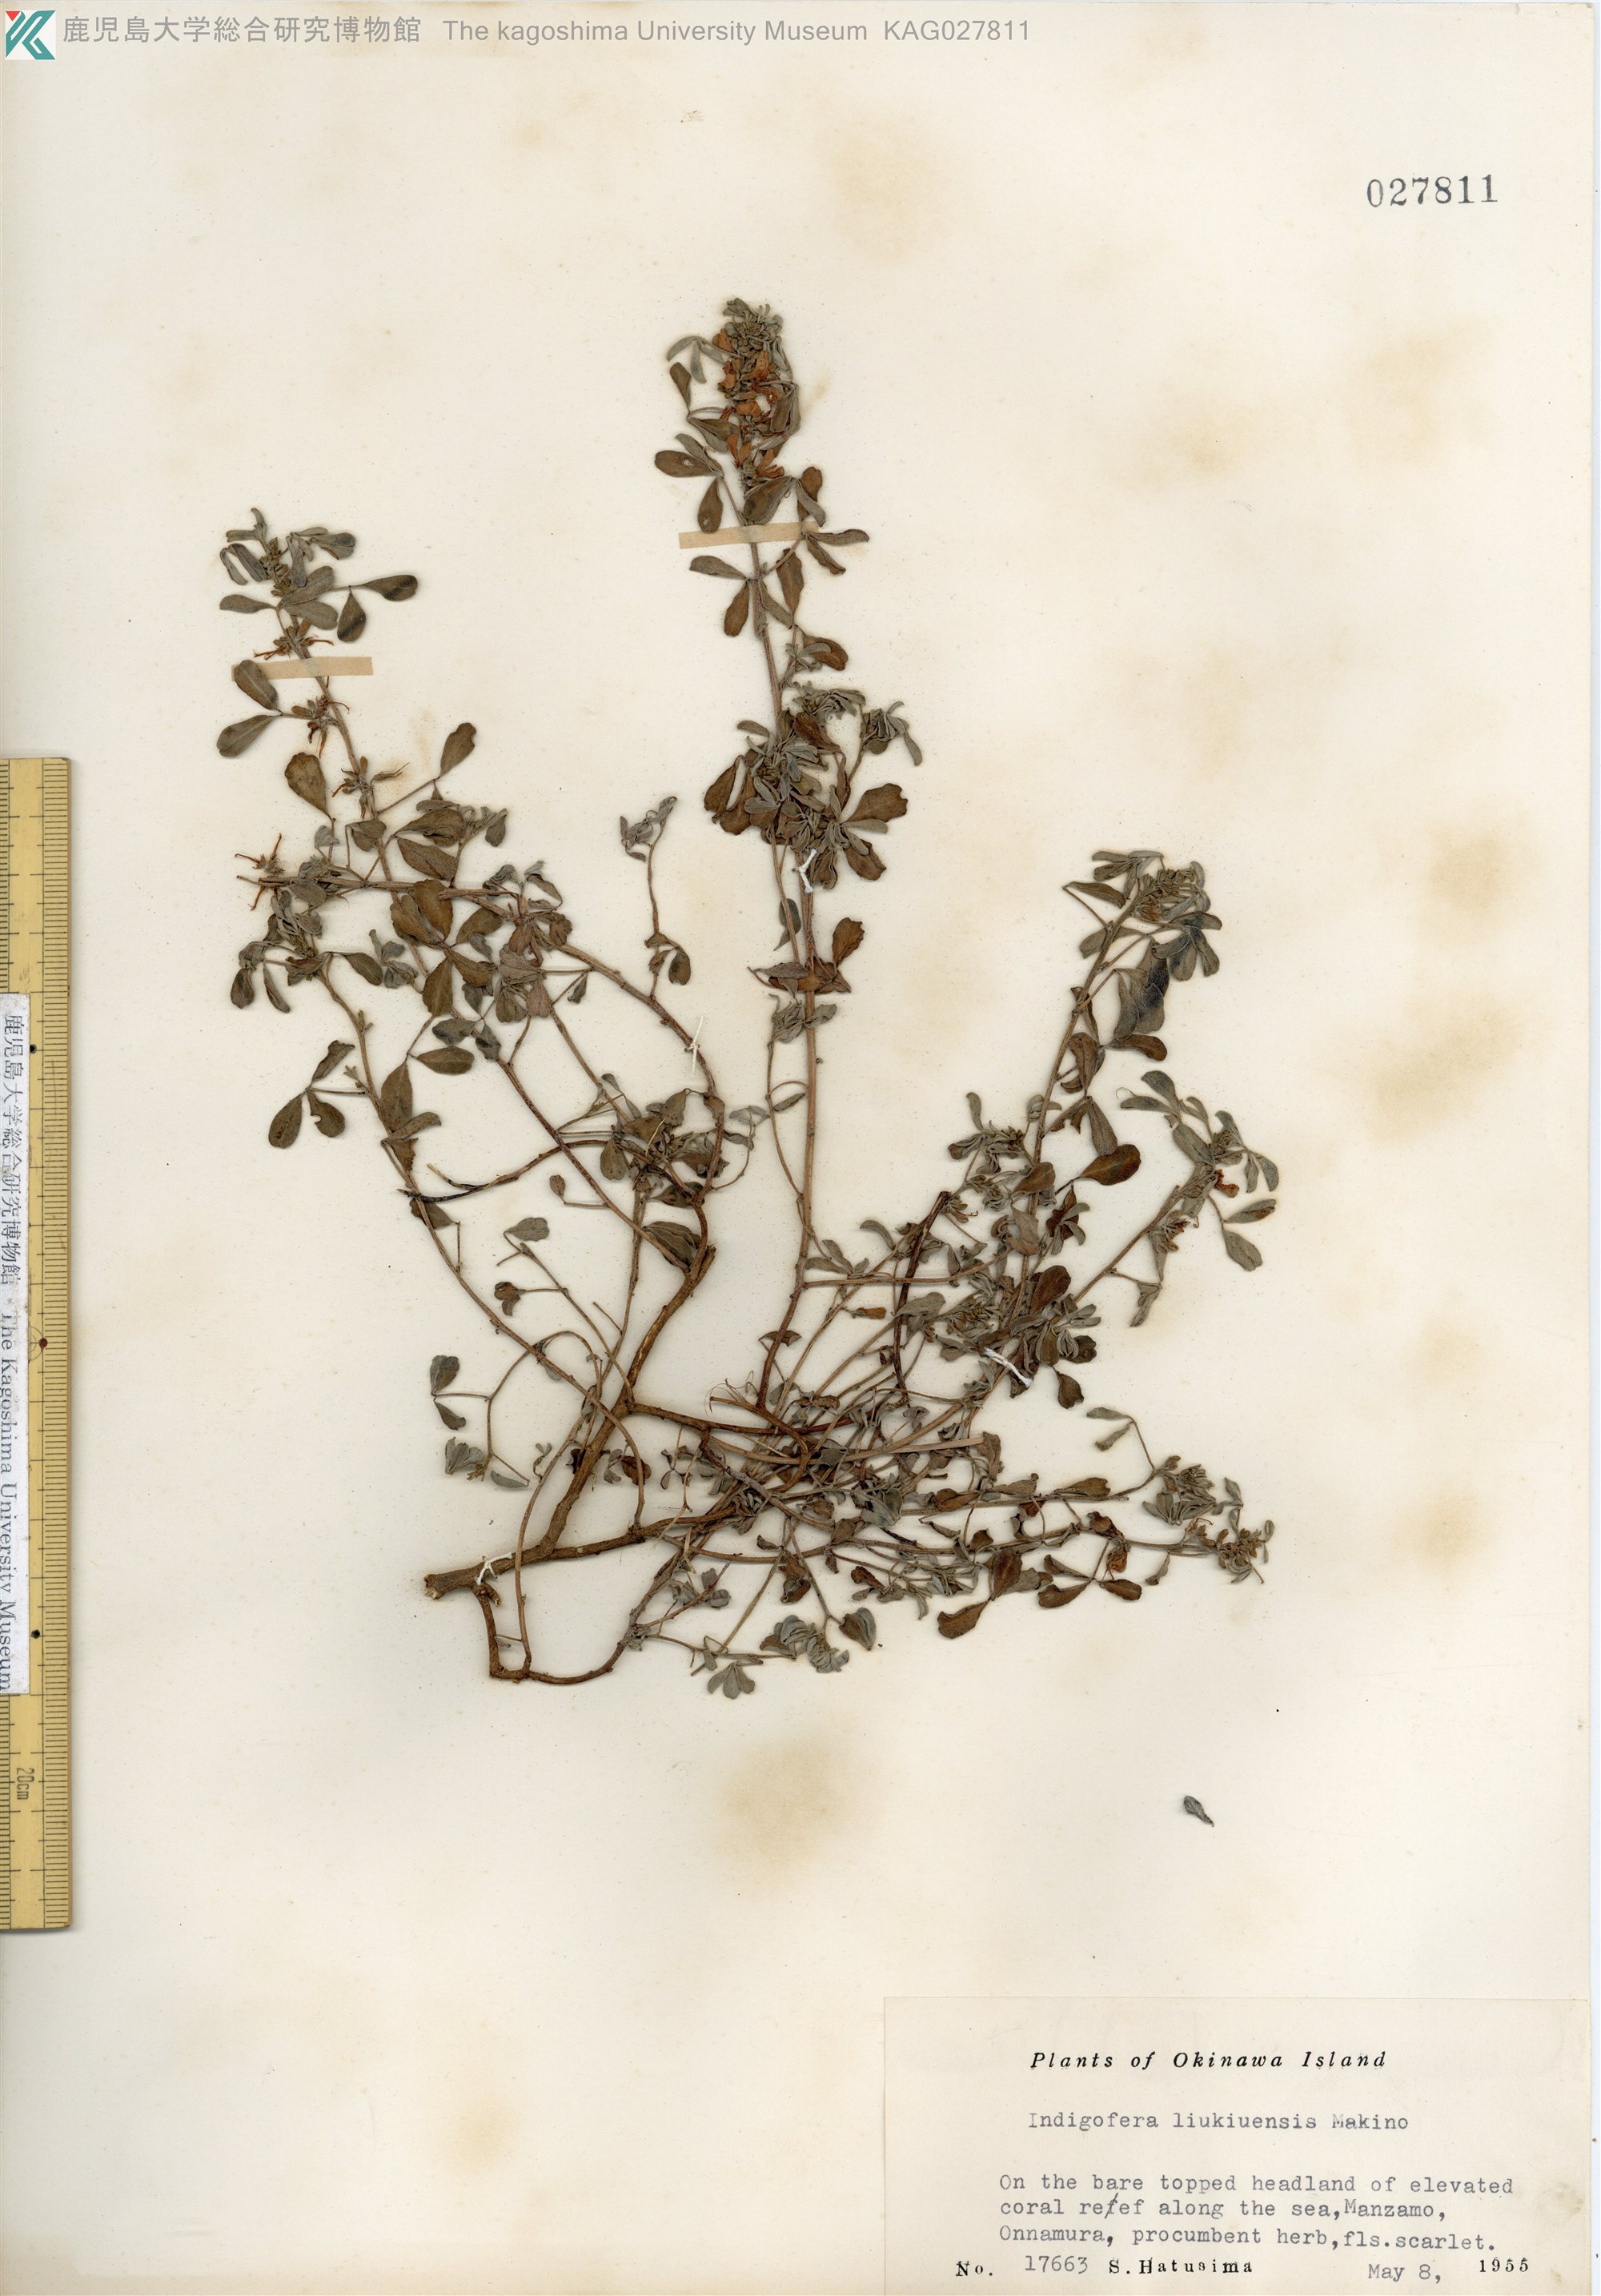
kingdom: Plantae
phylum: Tracheophyta
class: Magnoliopsida
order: Fabales
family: Fabaceae
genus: Indigofera
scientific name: Indigofera trifoliata
